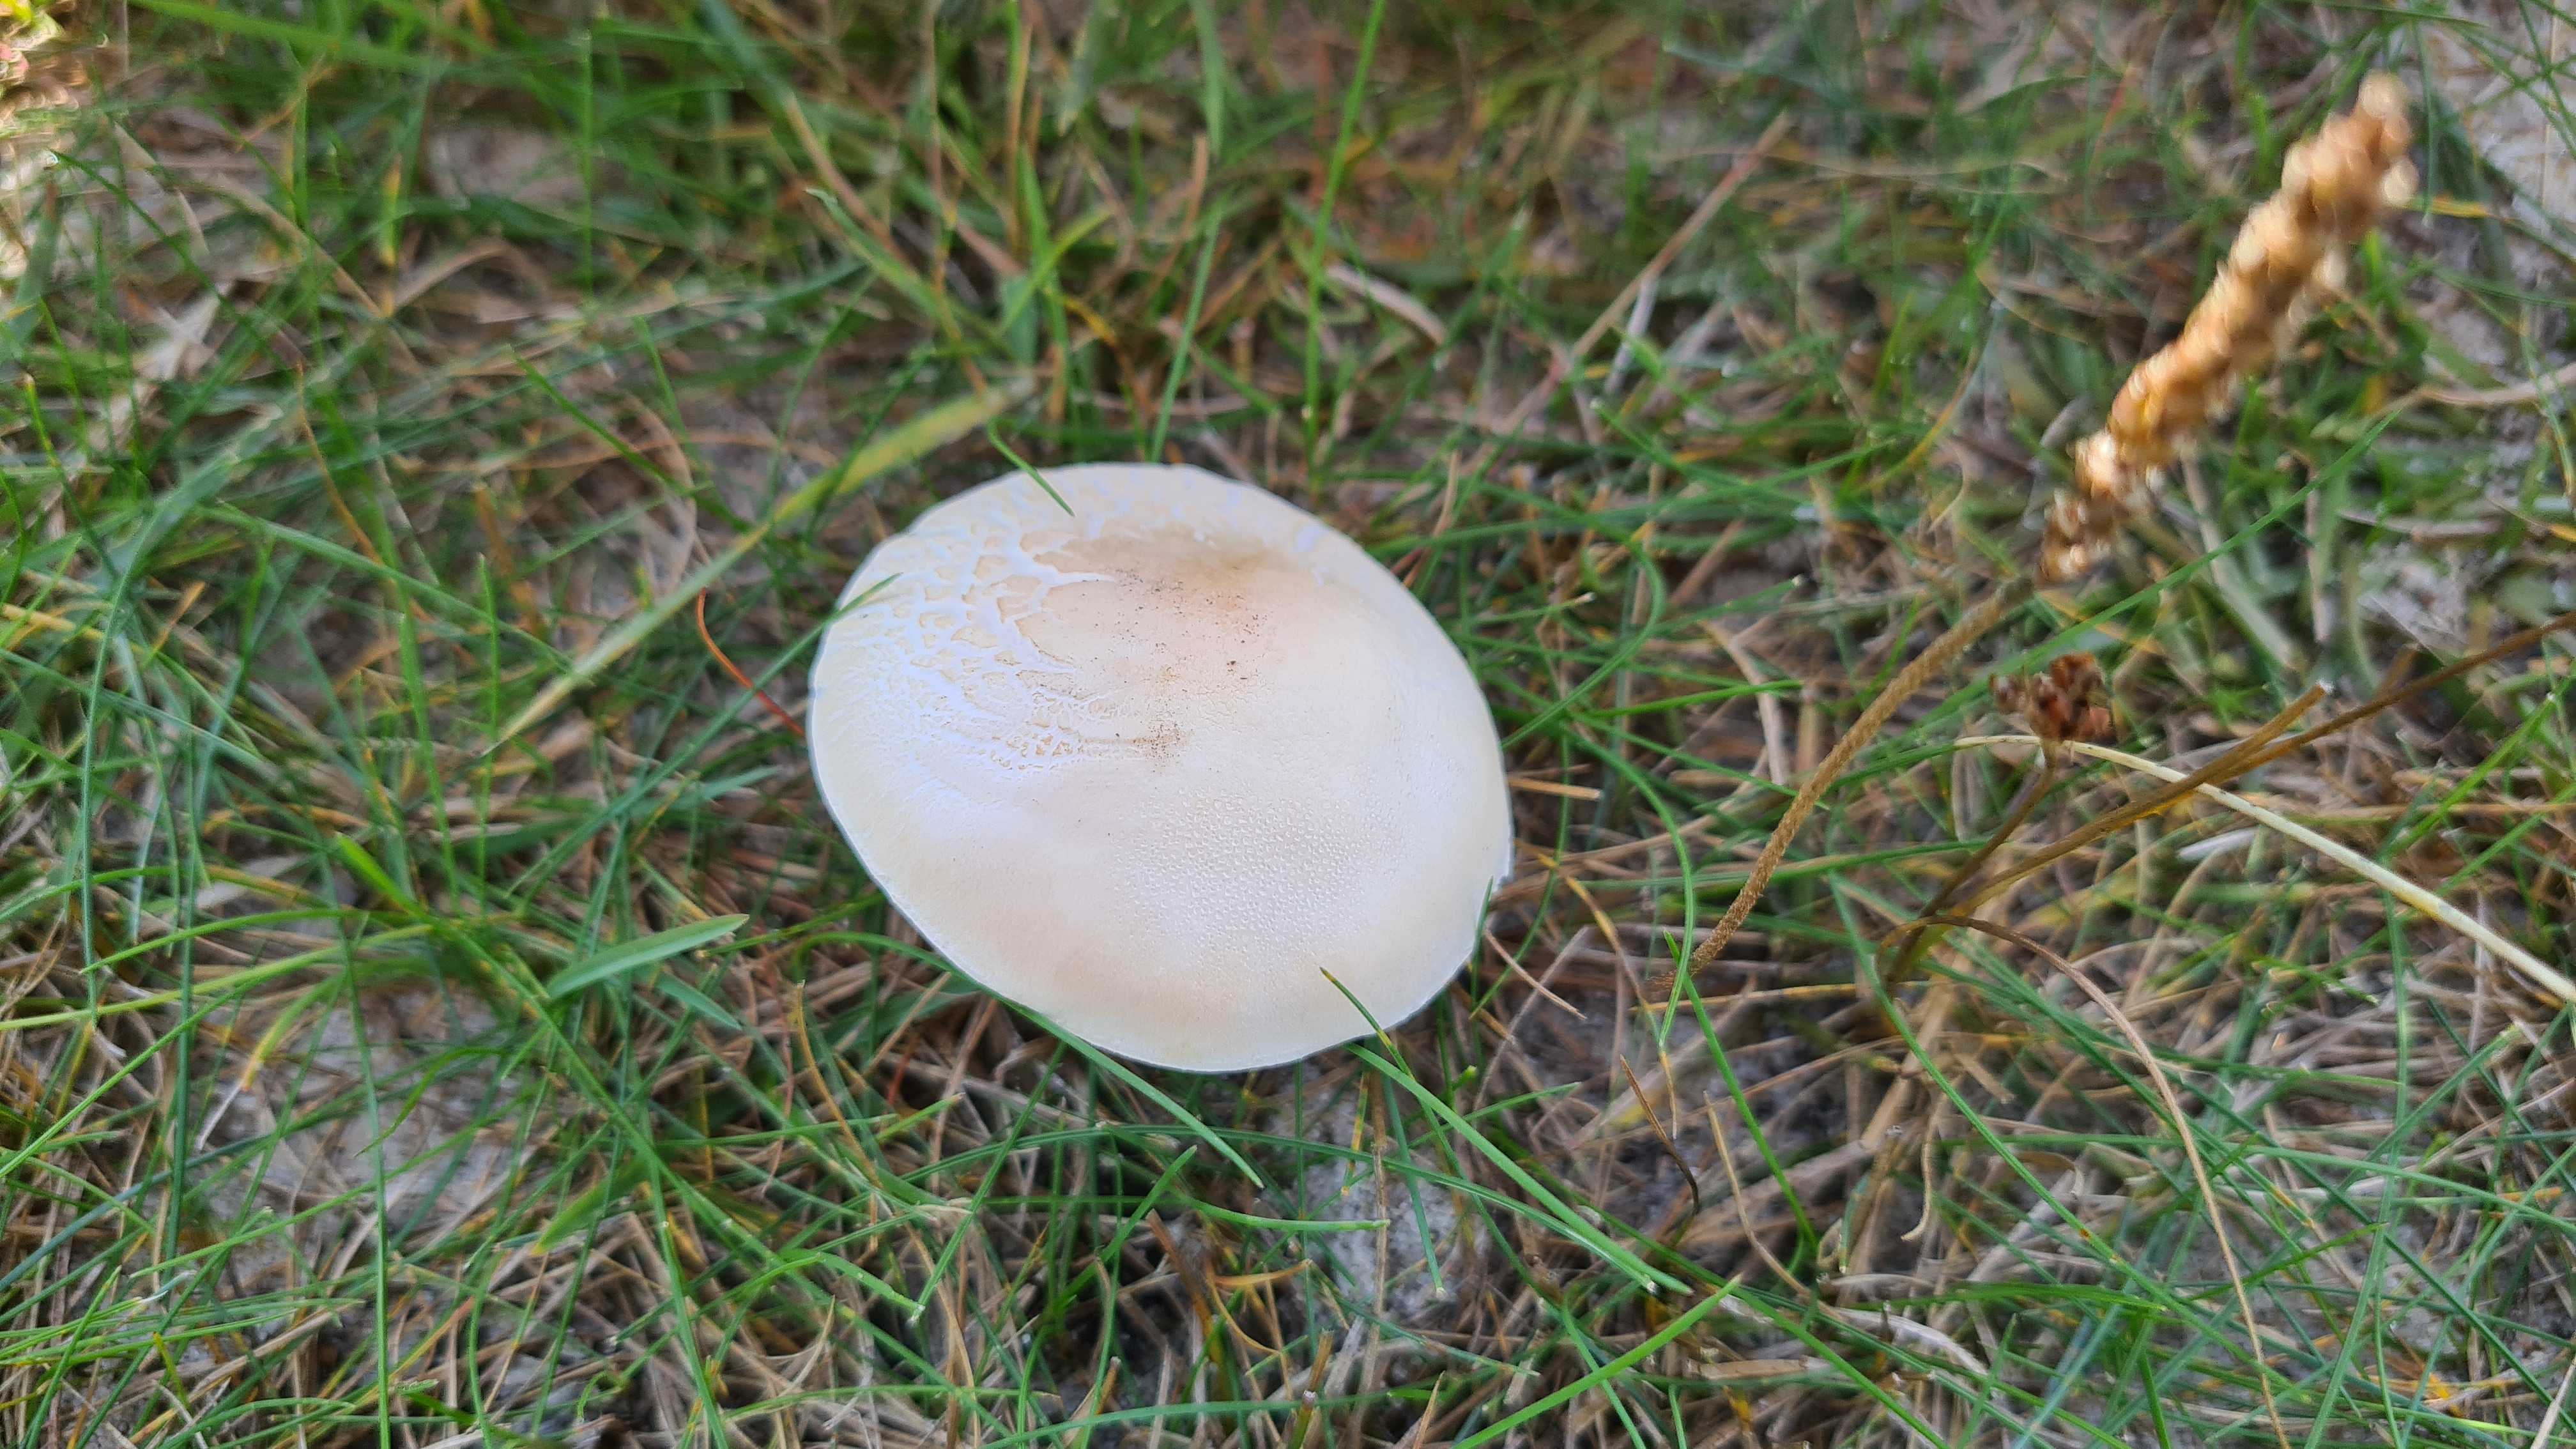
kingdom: Fungi
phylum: Basidiomycota
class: Agaricomycetes
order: Agaricales
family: Agaricaceae
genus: Leucoagaricus
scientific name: Leucoagaricus leucothites
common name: rosabladet silkehat
